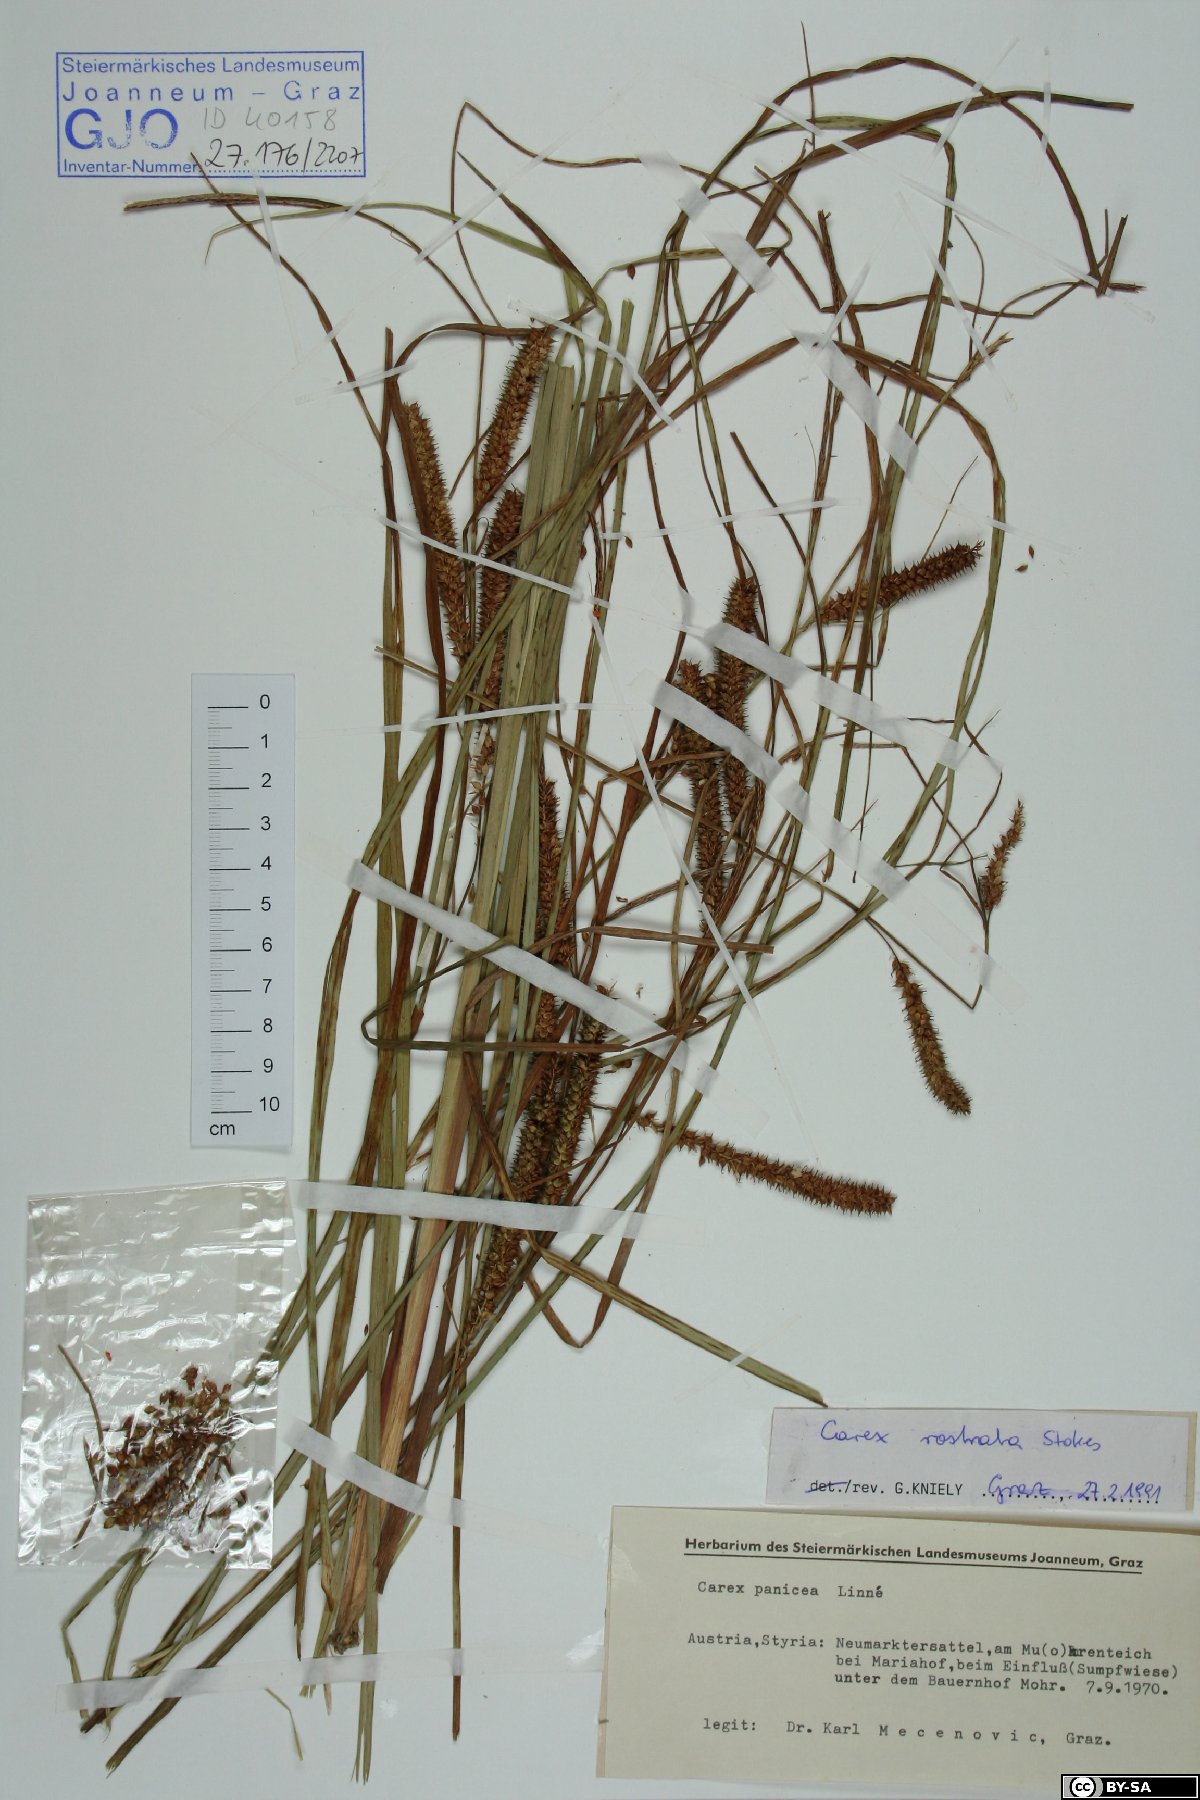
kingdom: Plantae
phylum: Tracheophyta
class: Liliopsida
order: Poales
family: Cyperaceae
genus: Carex
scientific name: Carex rostrata
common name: Bottle sedge
